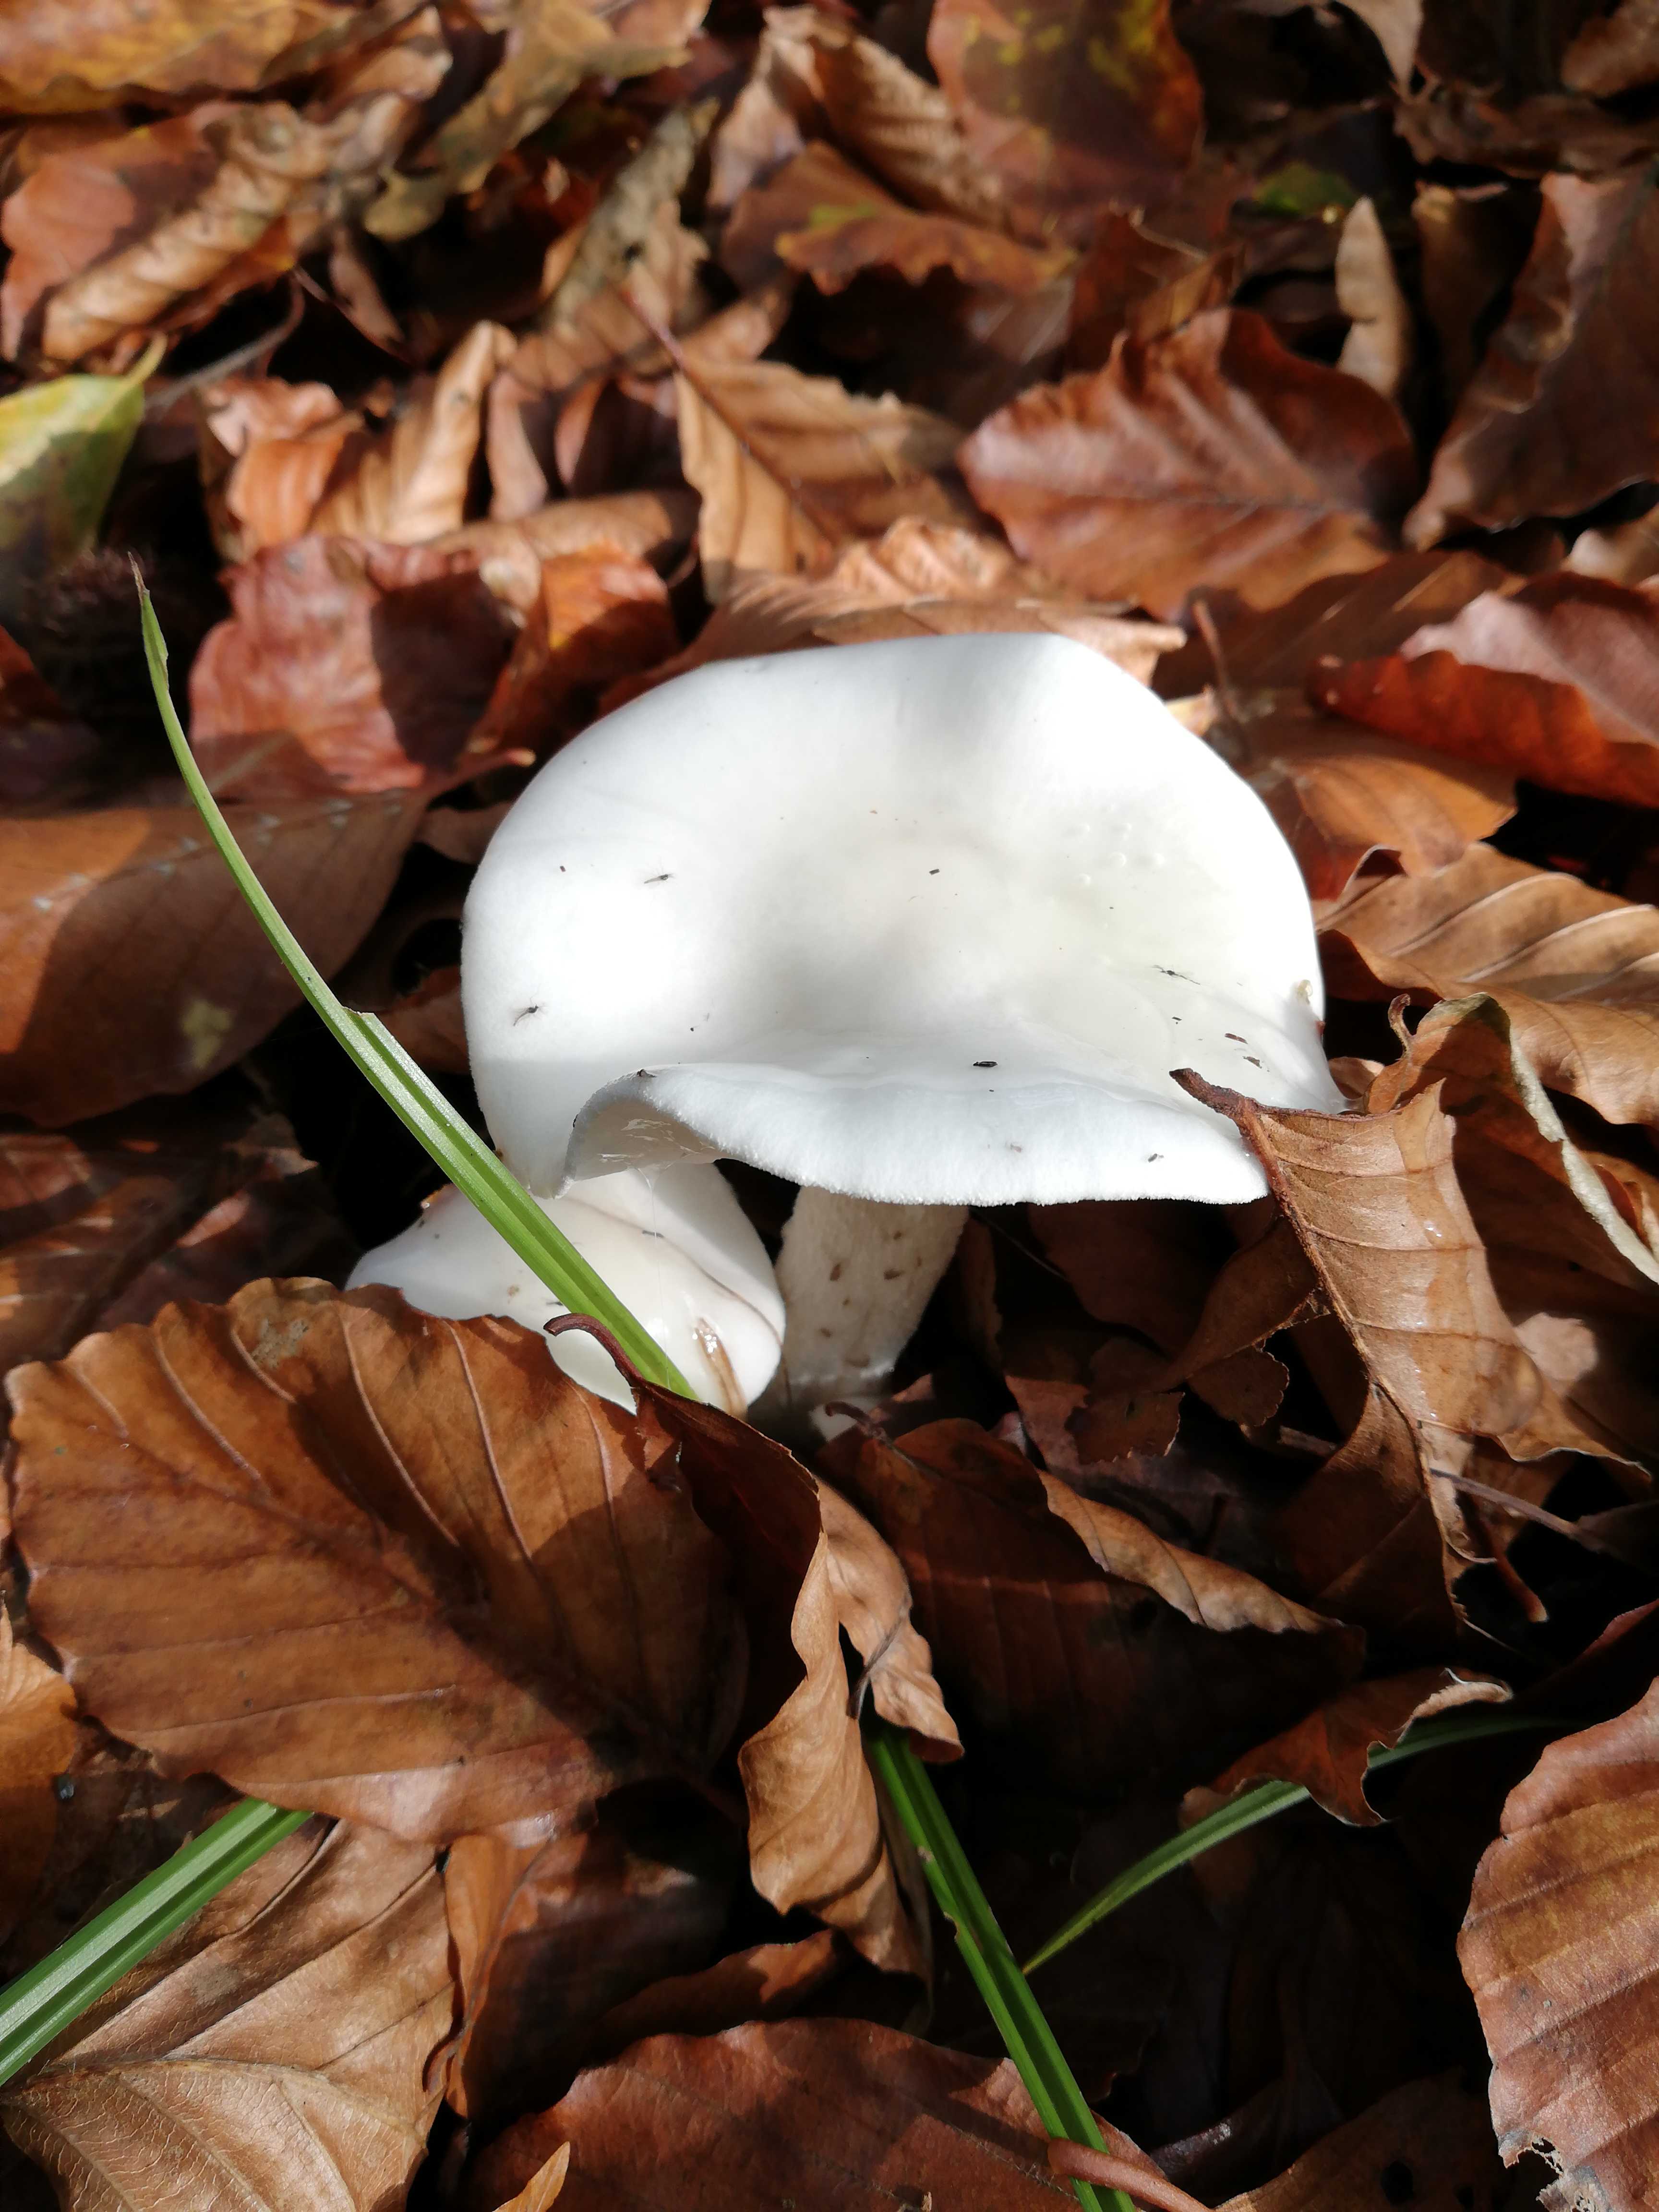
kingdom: Fungi
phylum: Basidiomycota
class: Agaricomycetes
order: Agaricales
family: Hygrophoraceae
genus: Hygrophorus
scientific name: Hygrophorus
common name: sneglehat
